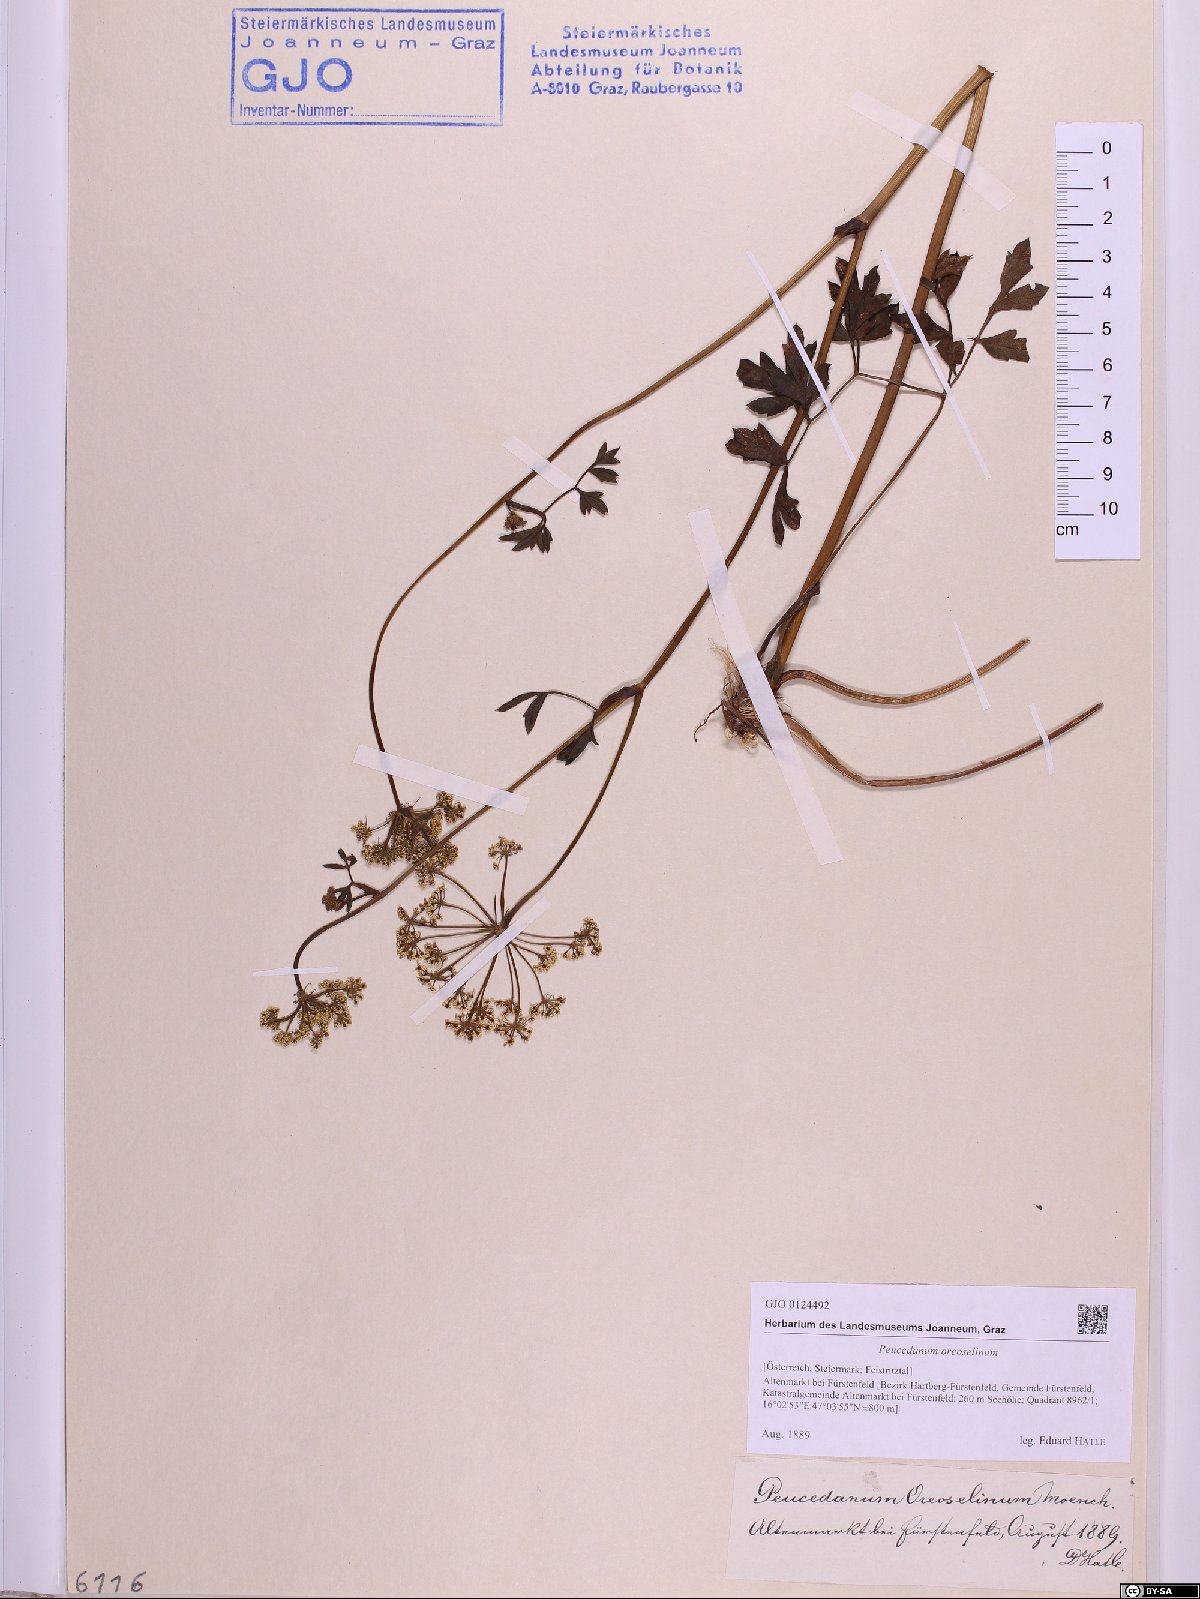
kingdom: Plantae
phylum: Tracheophyta
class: Magnoliopsida
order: Apiales
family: Apiaceae
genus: Oreoselinum
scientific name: Oreoselinum nigrum
